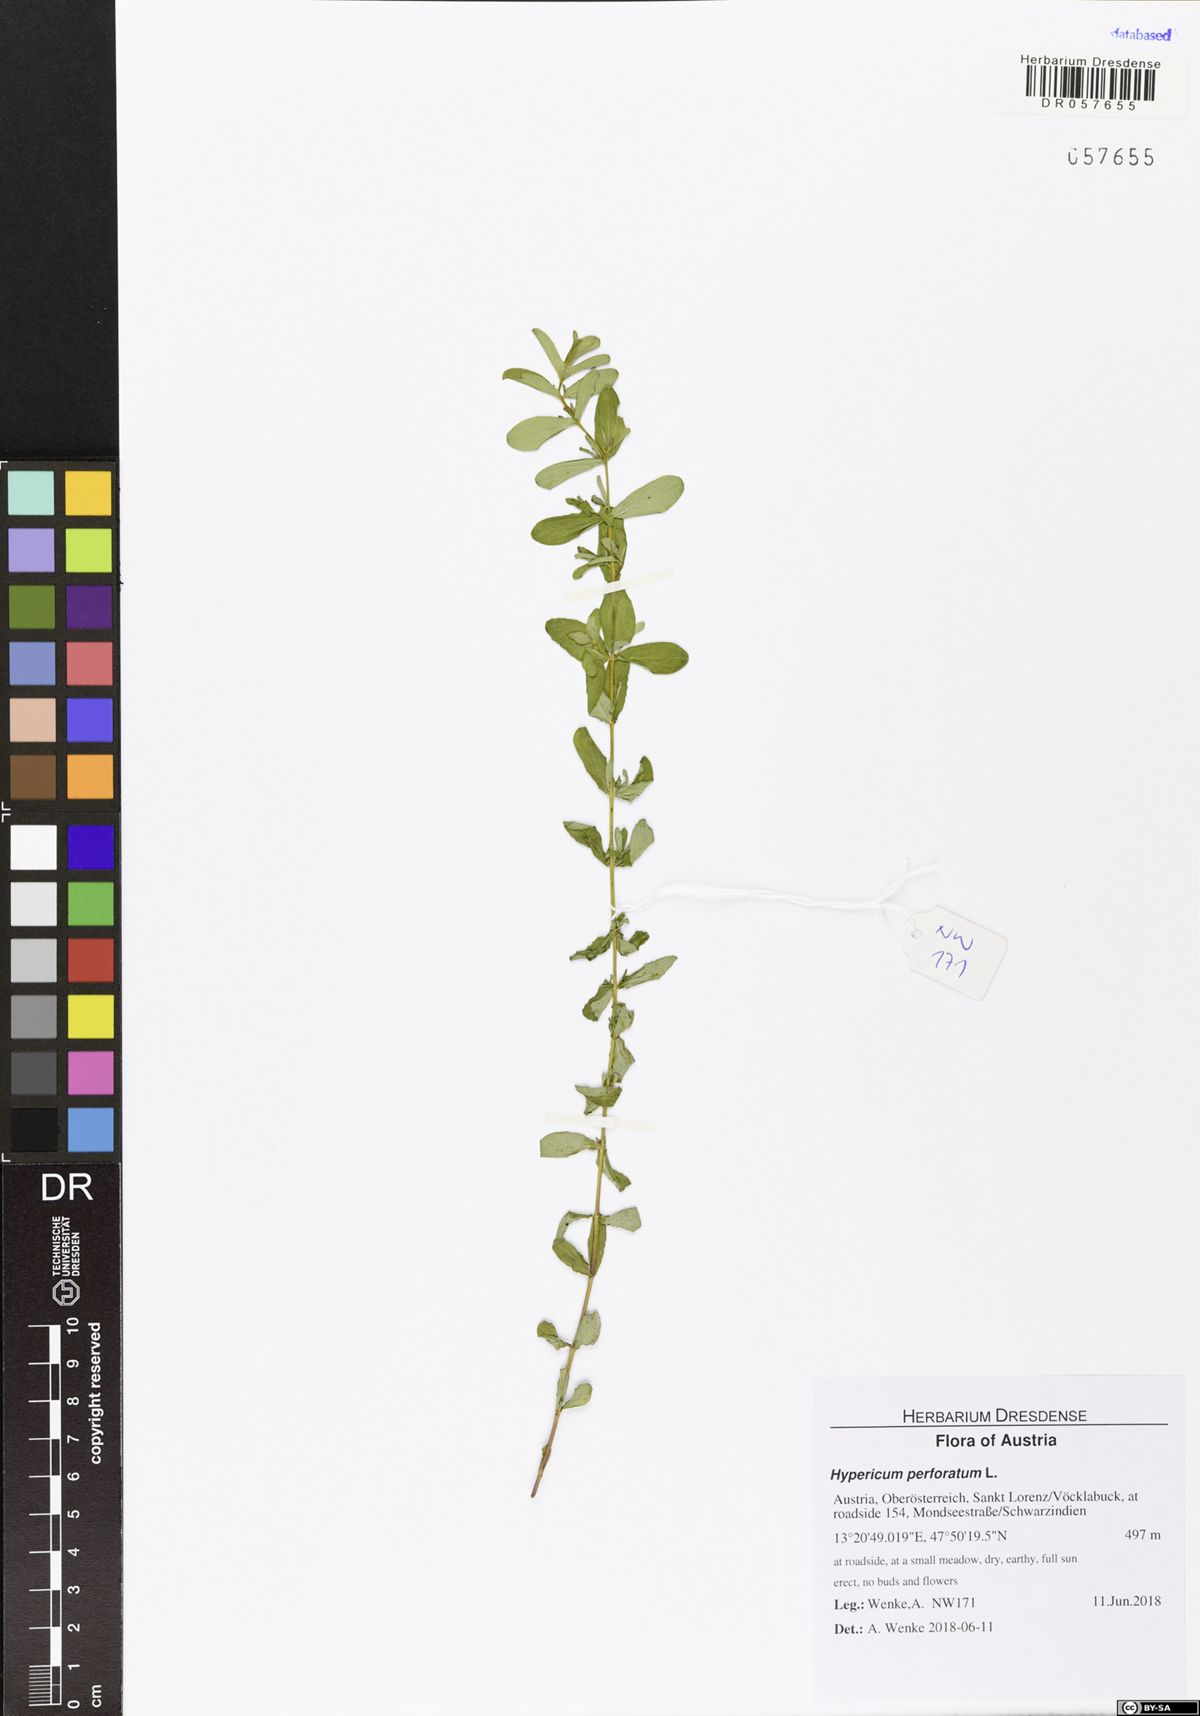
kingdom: Plantae
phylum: Tracheophyta
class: Magnoliopsida
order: Malpighiales
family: Hypericaceae
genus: Hypericum
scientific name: Hypericum perforatum
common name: Common st. johnswort
